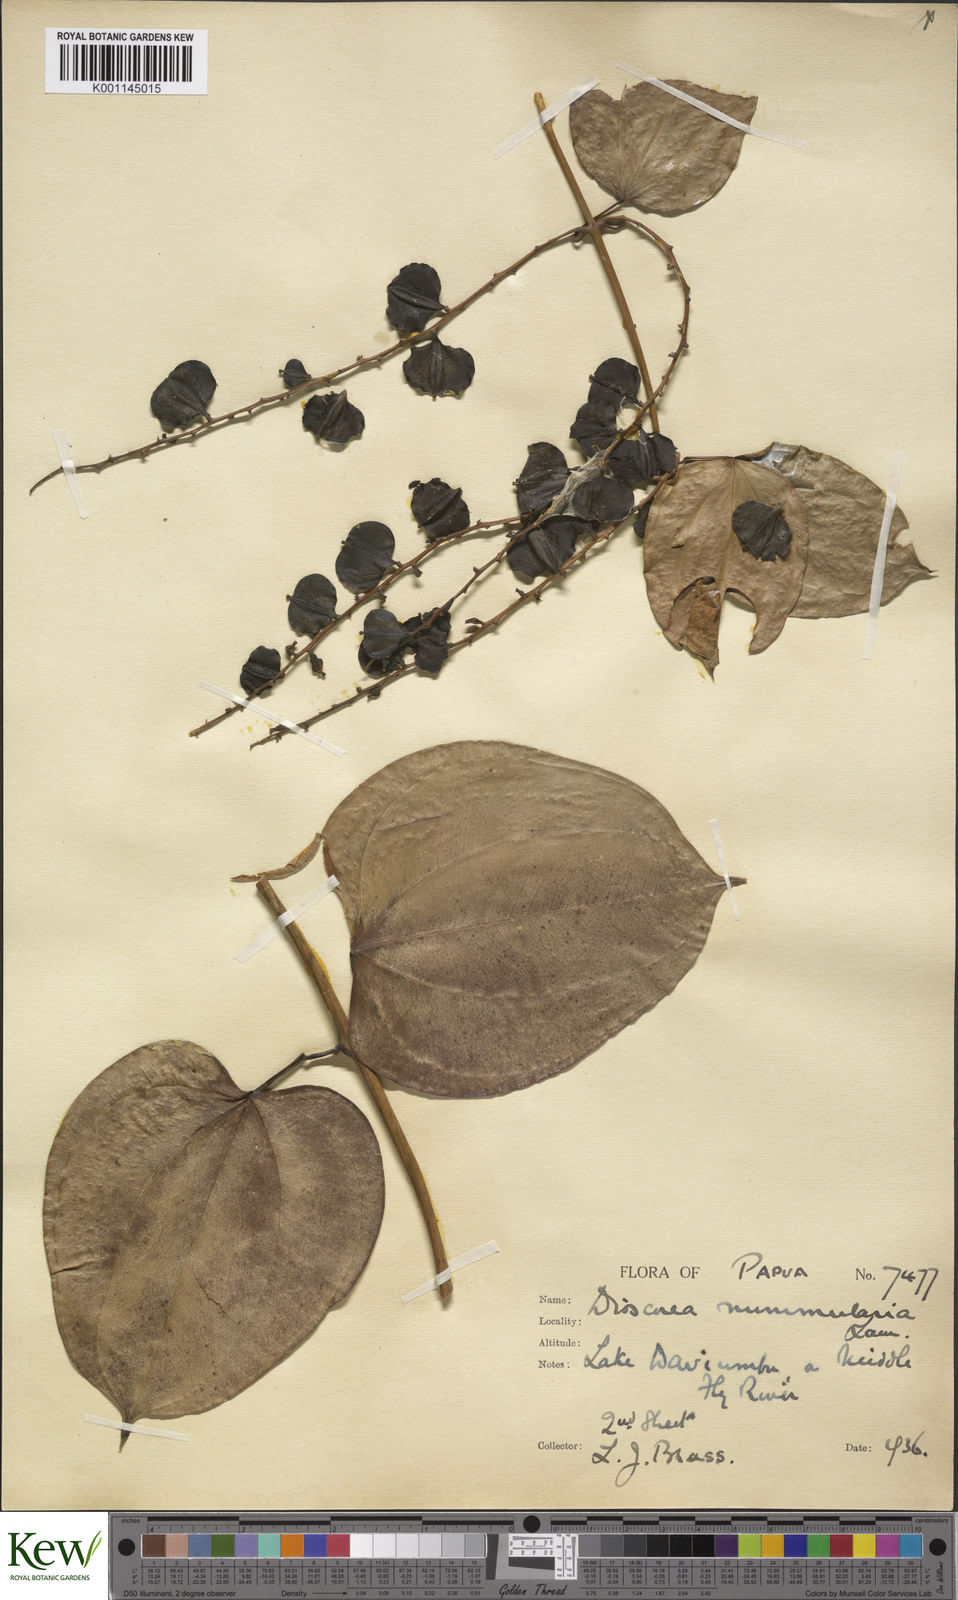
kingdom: Plantae
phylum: Tracheophyta
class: Liliopsida
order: Dioscoreales
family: Dioscoreaceae
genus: Dioscorea
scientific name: Dioscorea nummularia
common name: Pacific yam
